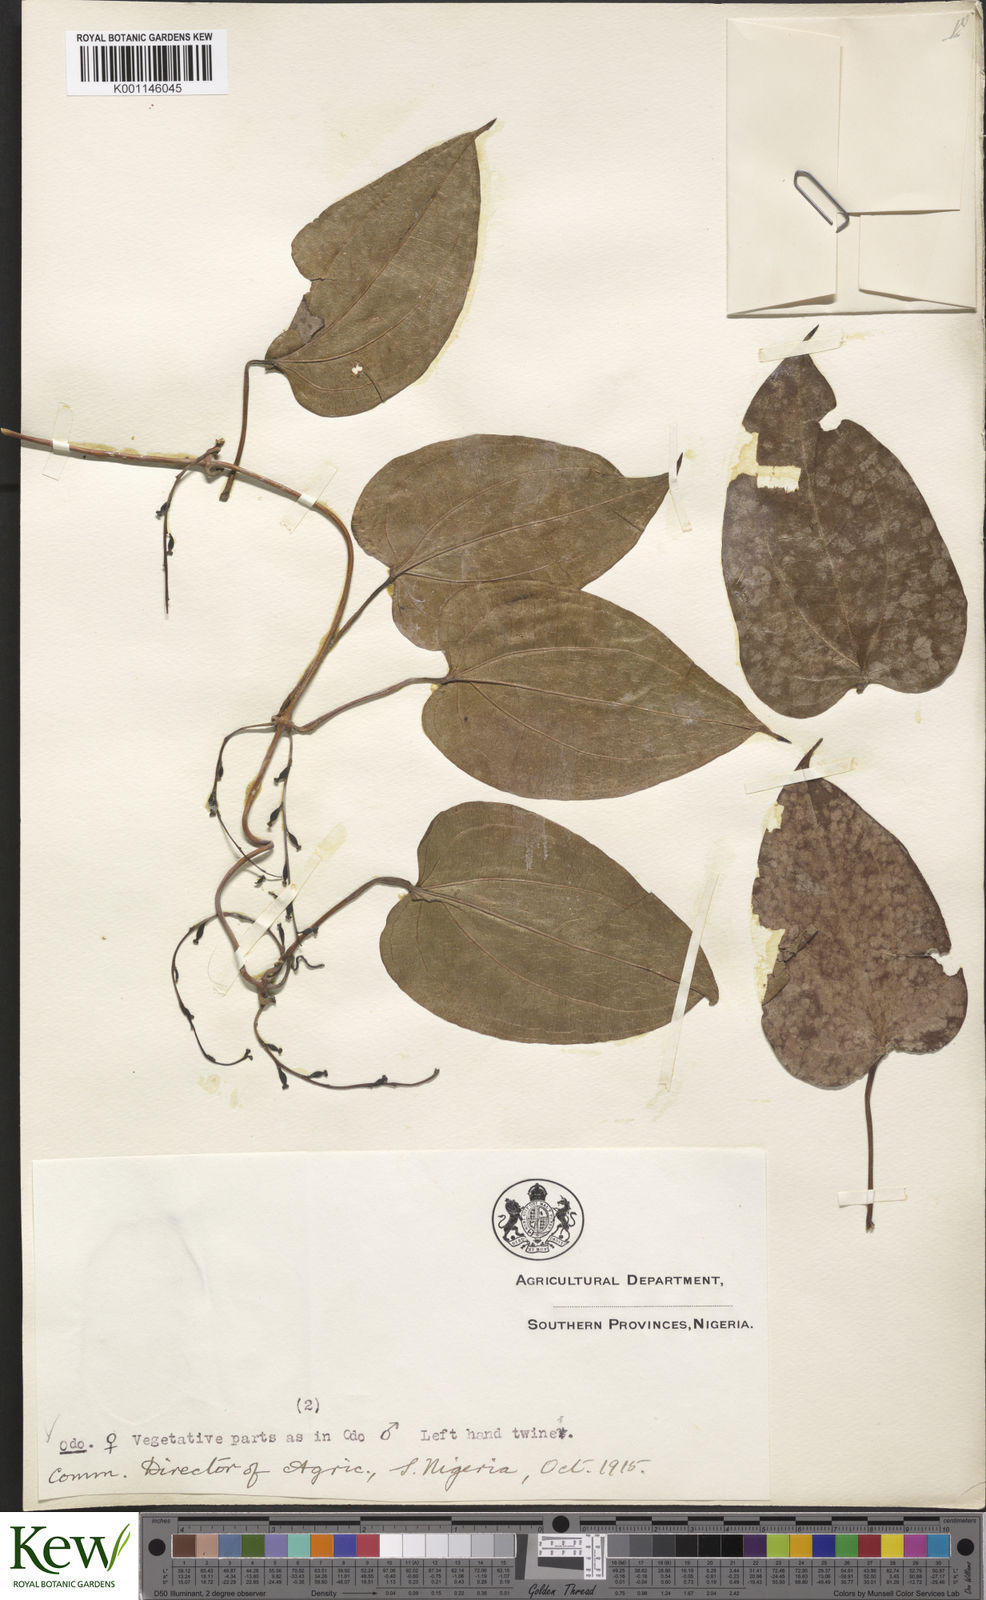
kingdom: Plantae
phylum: Tracheophyta
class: Liliopsida
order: Dioscoreales
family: Dioscoreaceae
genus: Dioscorea
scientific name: Dioscorea baya
